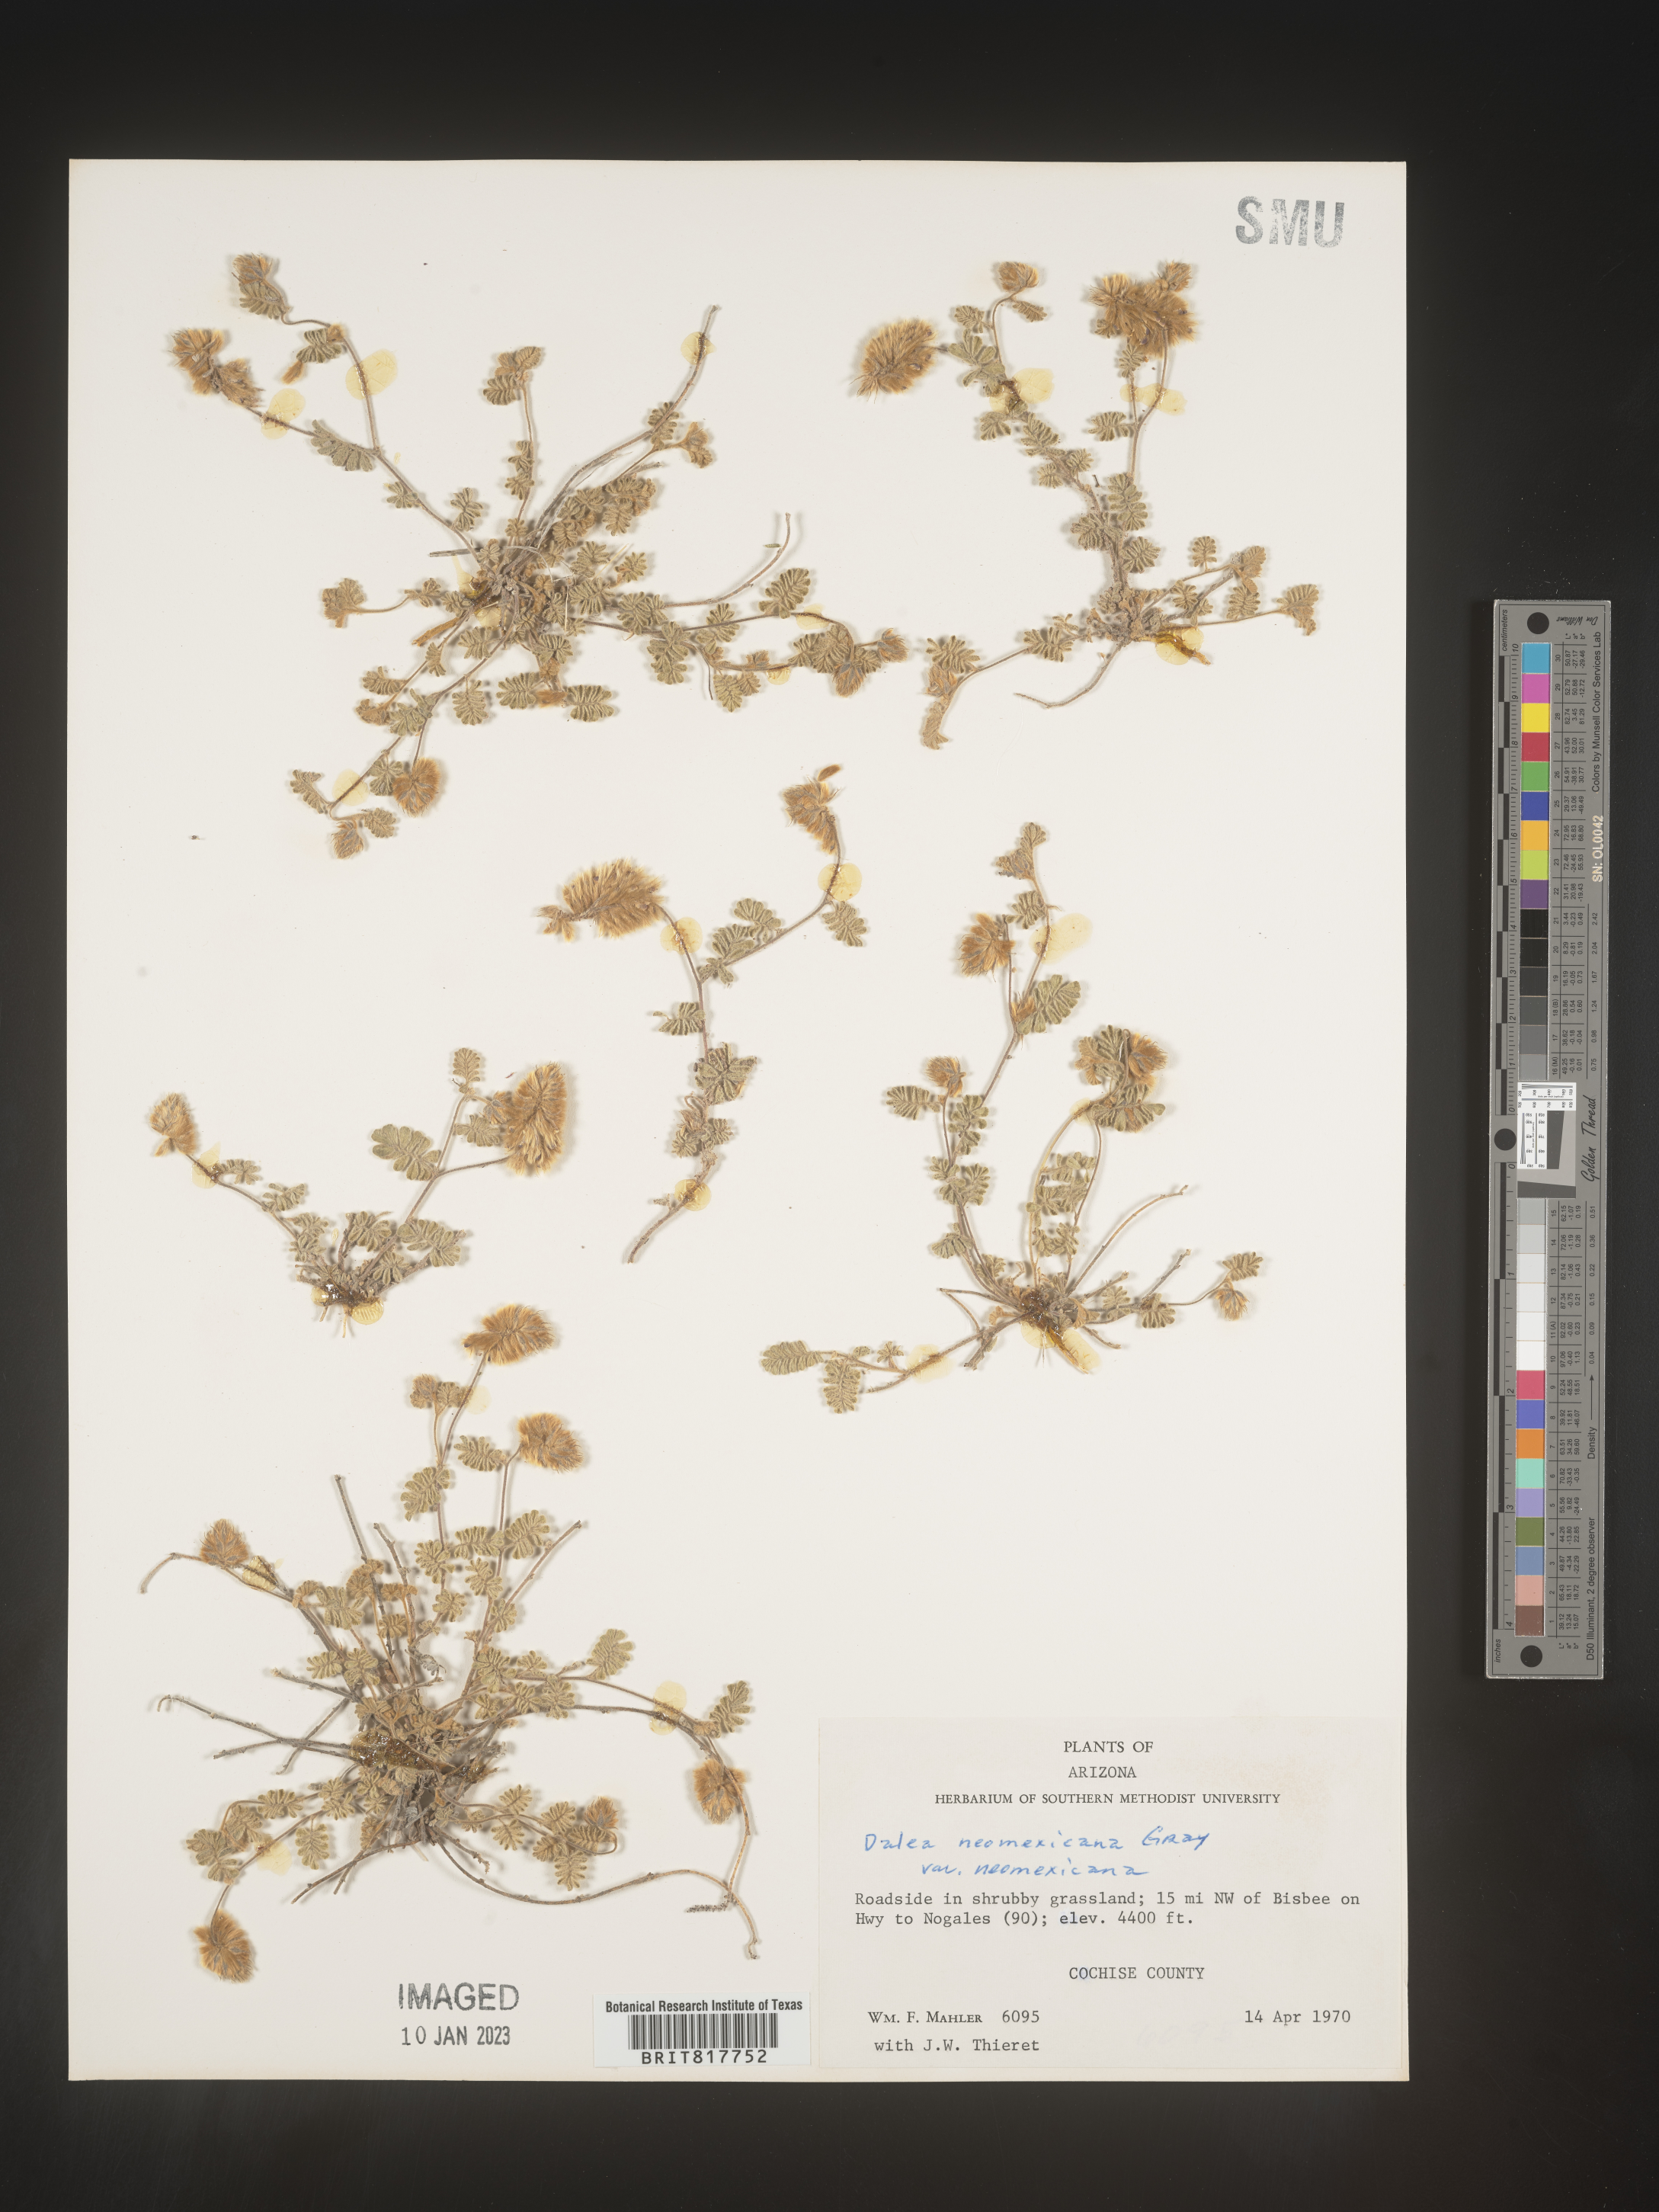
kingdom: Plantae
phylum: Tracheophyta
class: Magnoliopsida
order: Fabales
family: Fabaceae
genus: Dalea
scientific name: Dalea neomexicana
